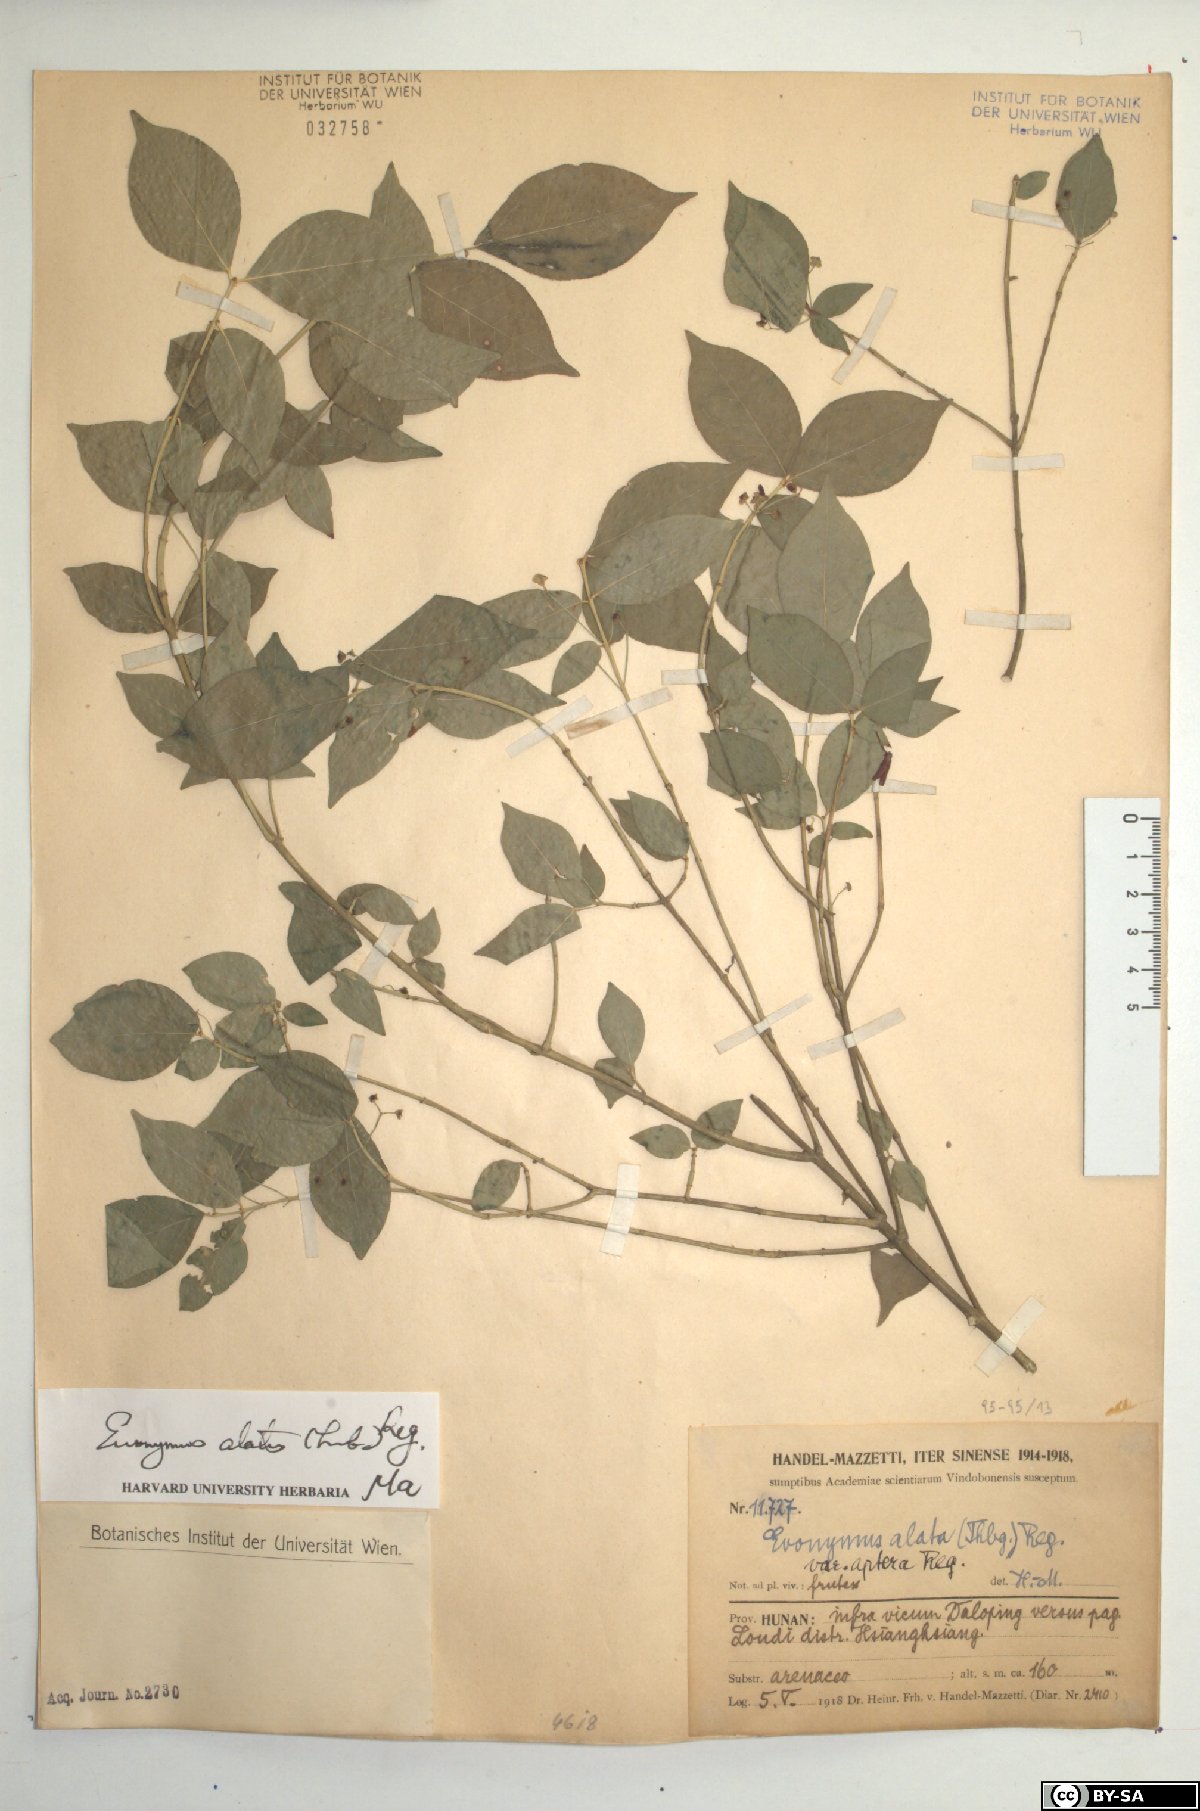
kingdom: Plantae
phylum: Tracheophyta
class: Magnoliopsida
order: Celastrales
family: Celastraceae
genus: Euonymus
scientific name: Euonymus alatus
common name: Winged euonymus
